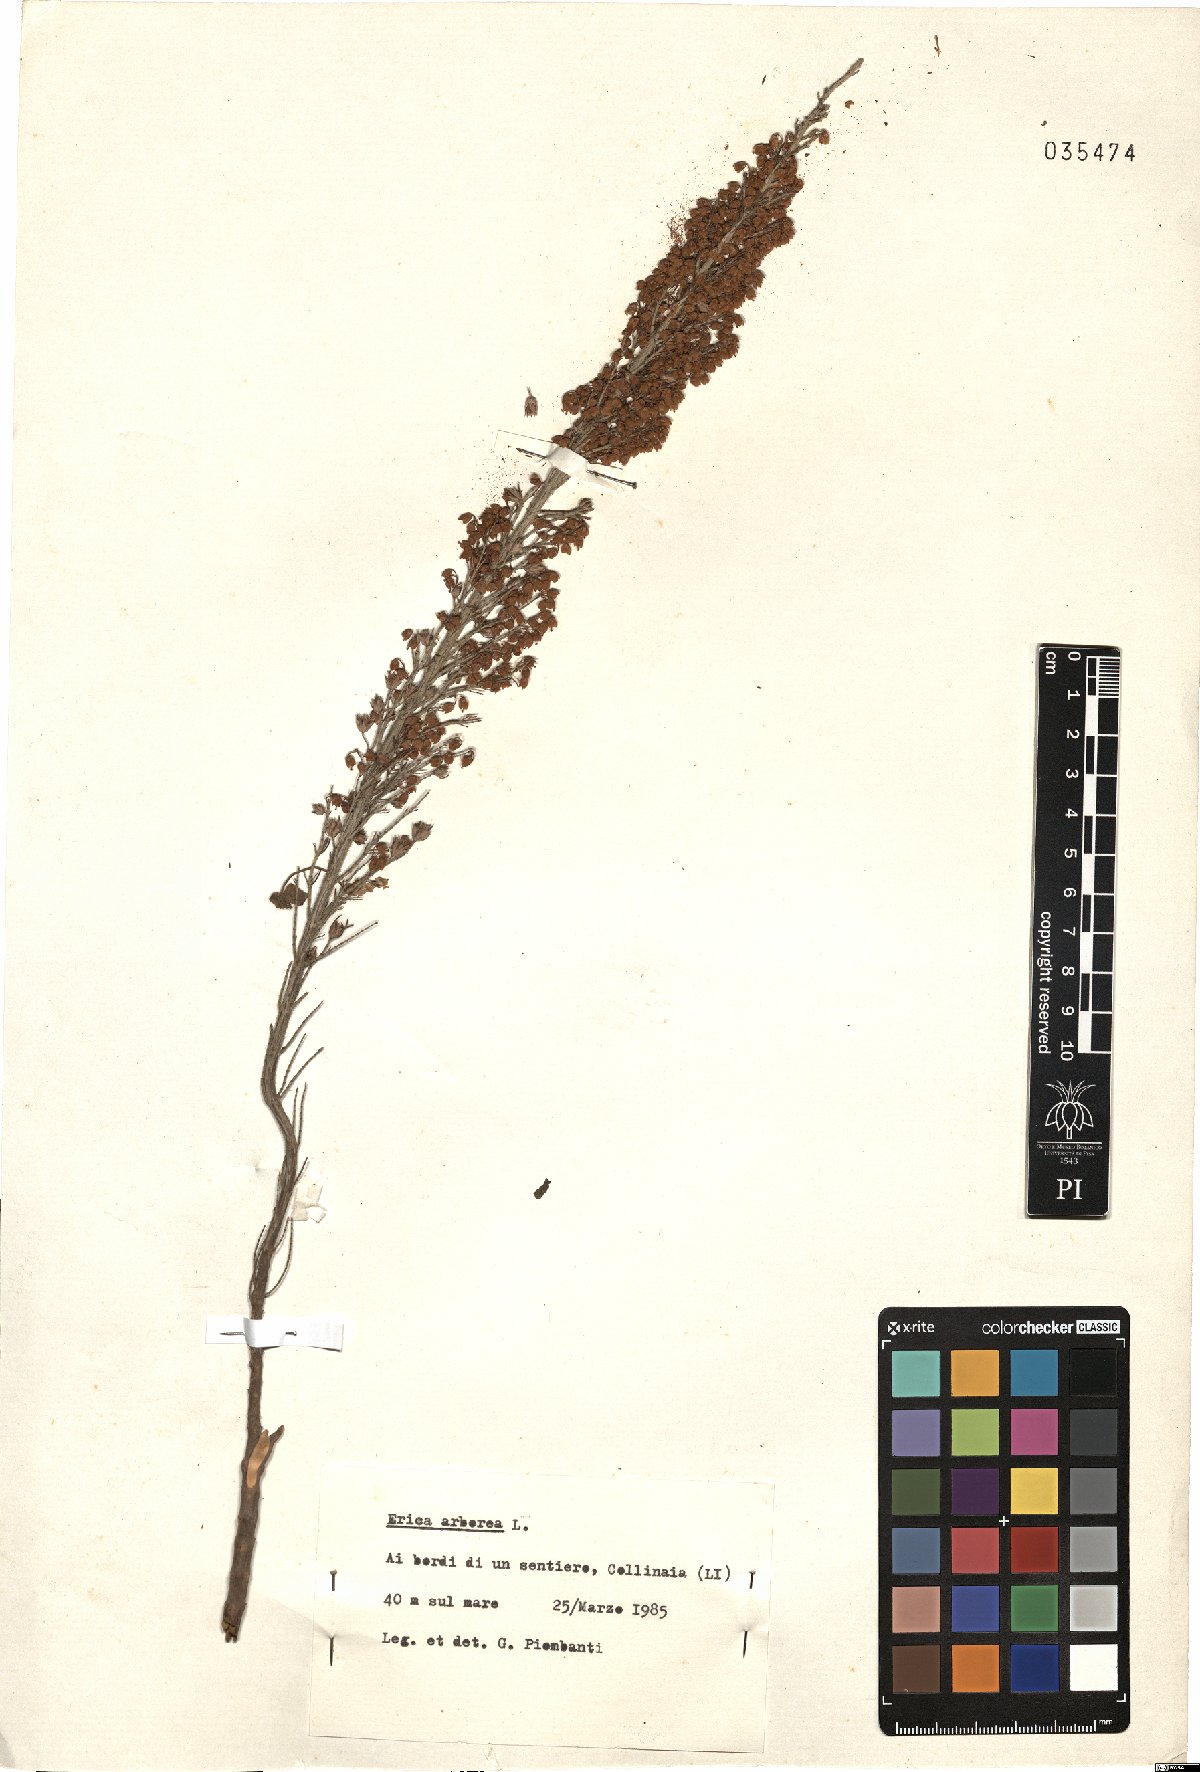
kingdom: Plantae
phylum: Tracheophyta
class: Magnoliopsida
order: Ericales
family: Ericaceae
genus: Erica
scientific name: Erica arborea
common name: Tree heath
